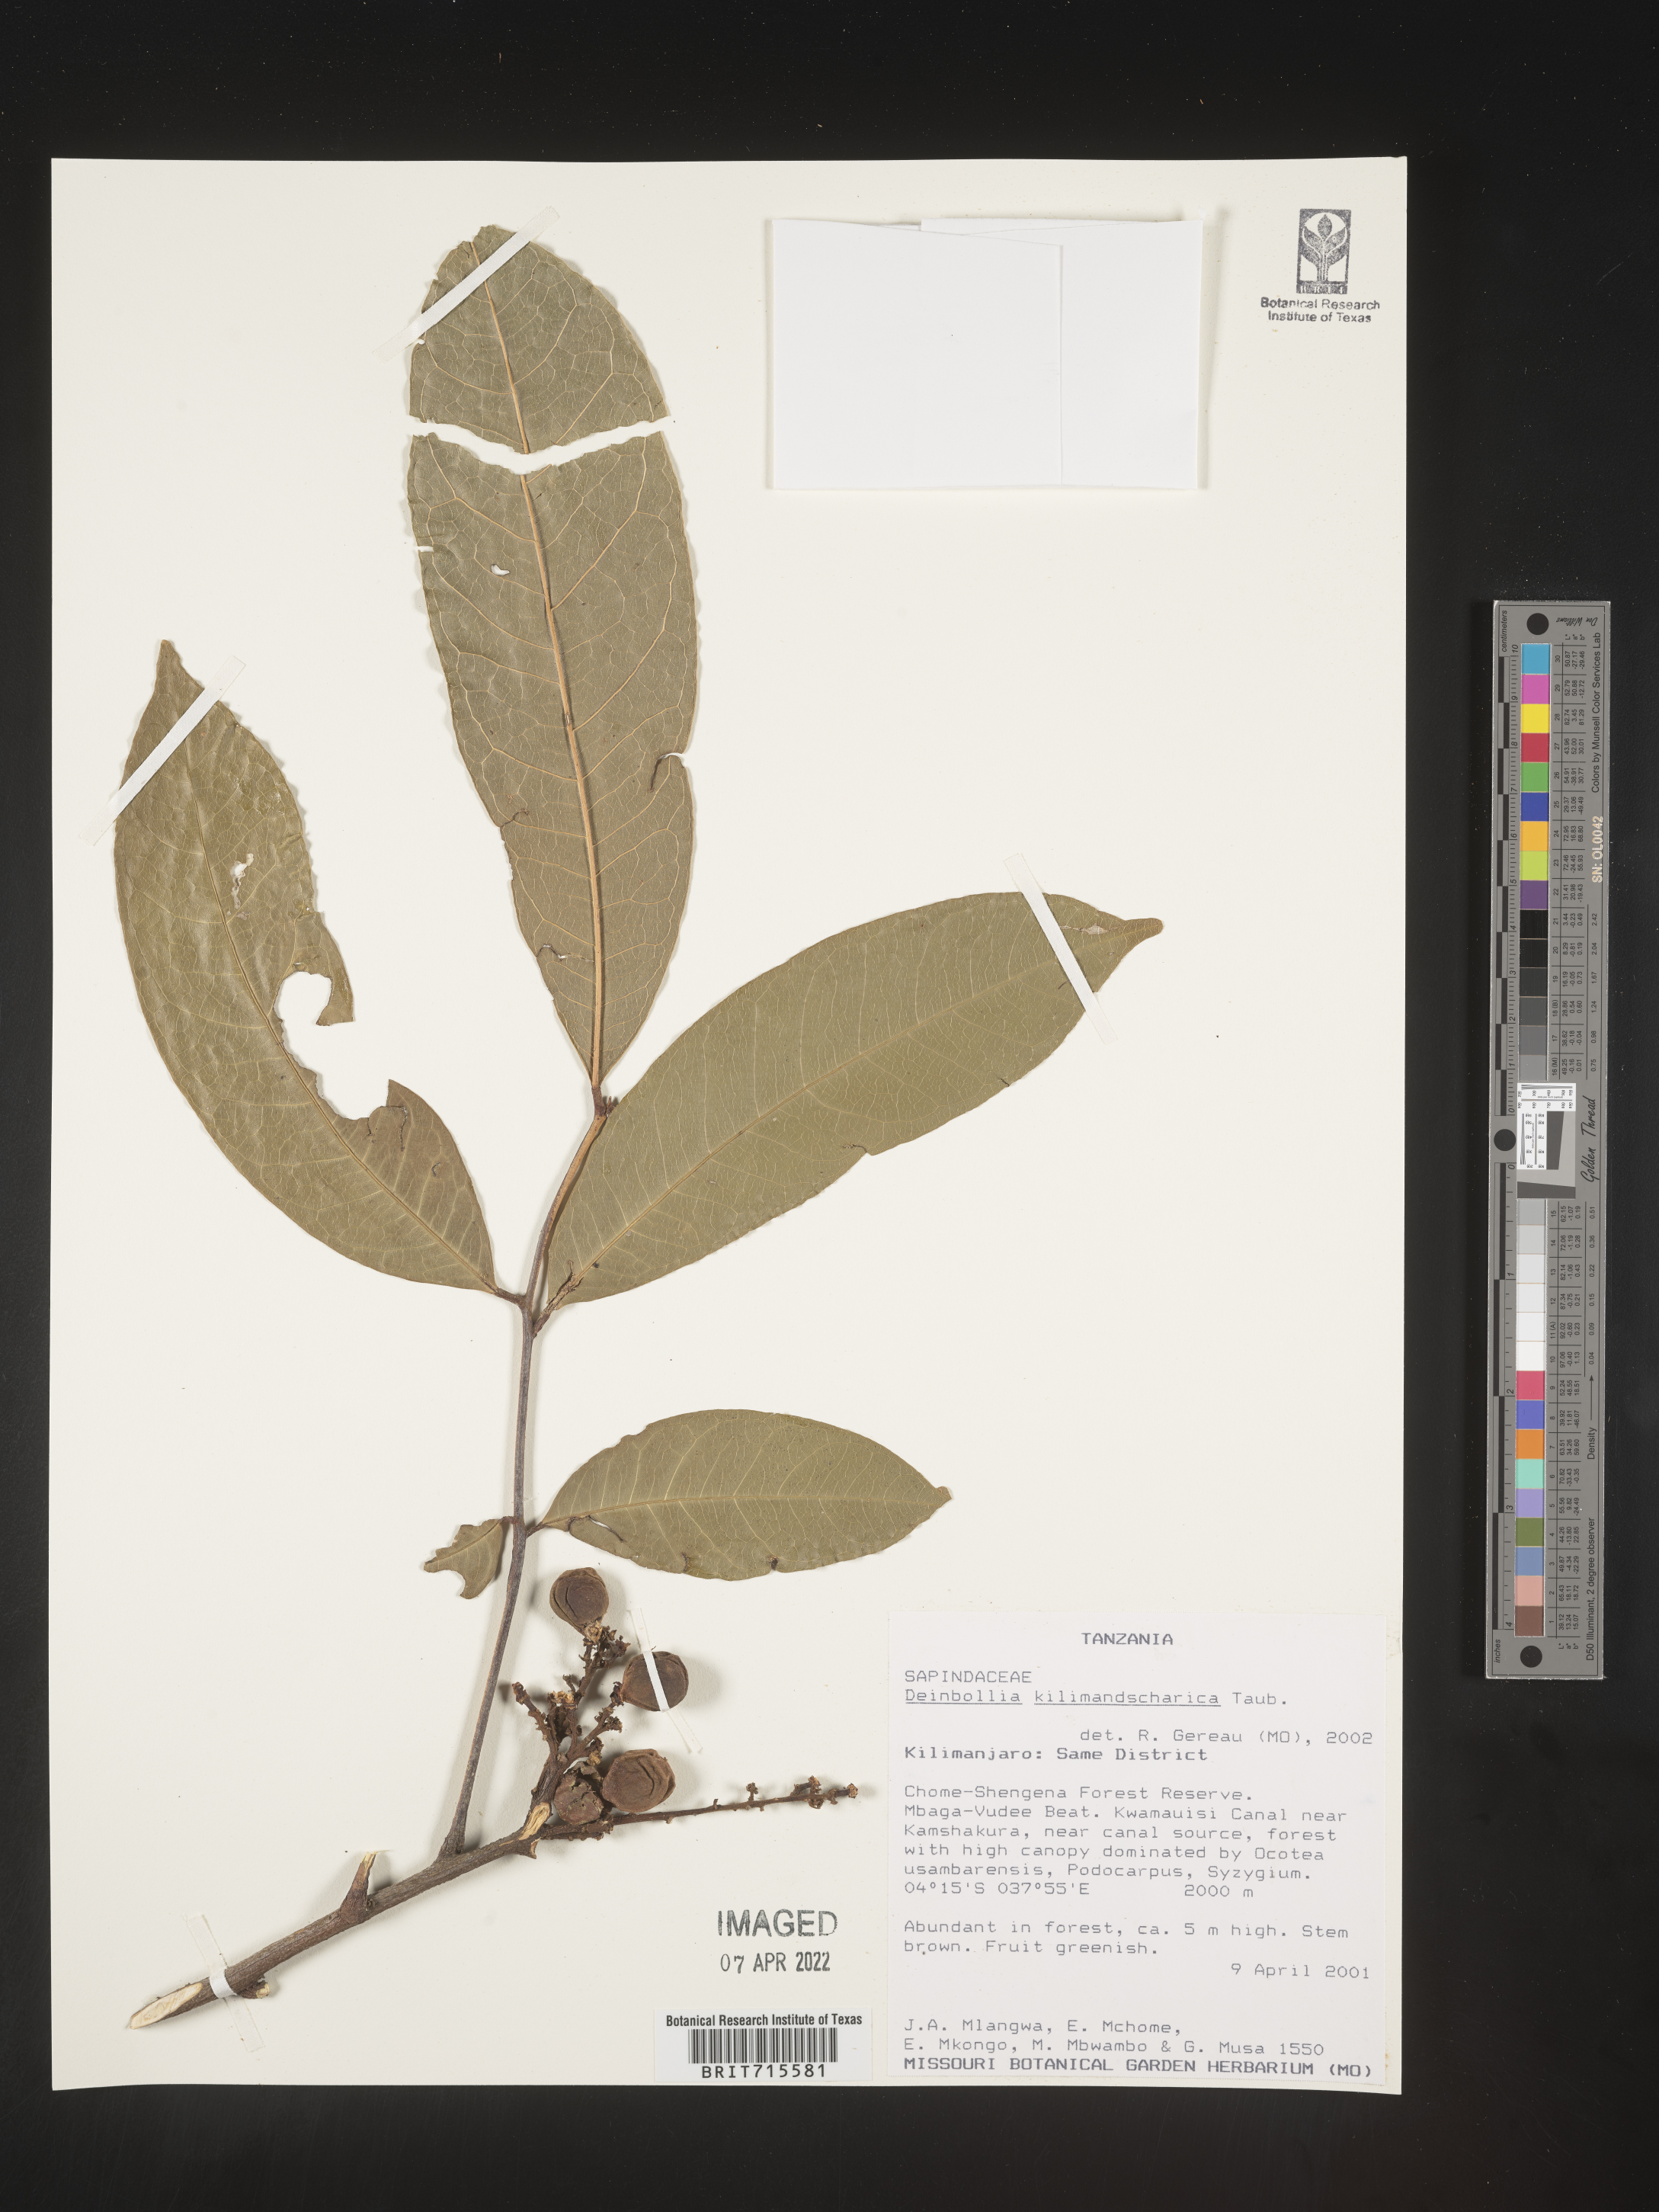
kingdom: Plantae
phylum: Tracheophyta
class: Magnoliopsida
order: Sapindales
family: Sapindaceae
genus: Deinbollia
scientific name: Deinbollia
